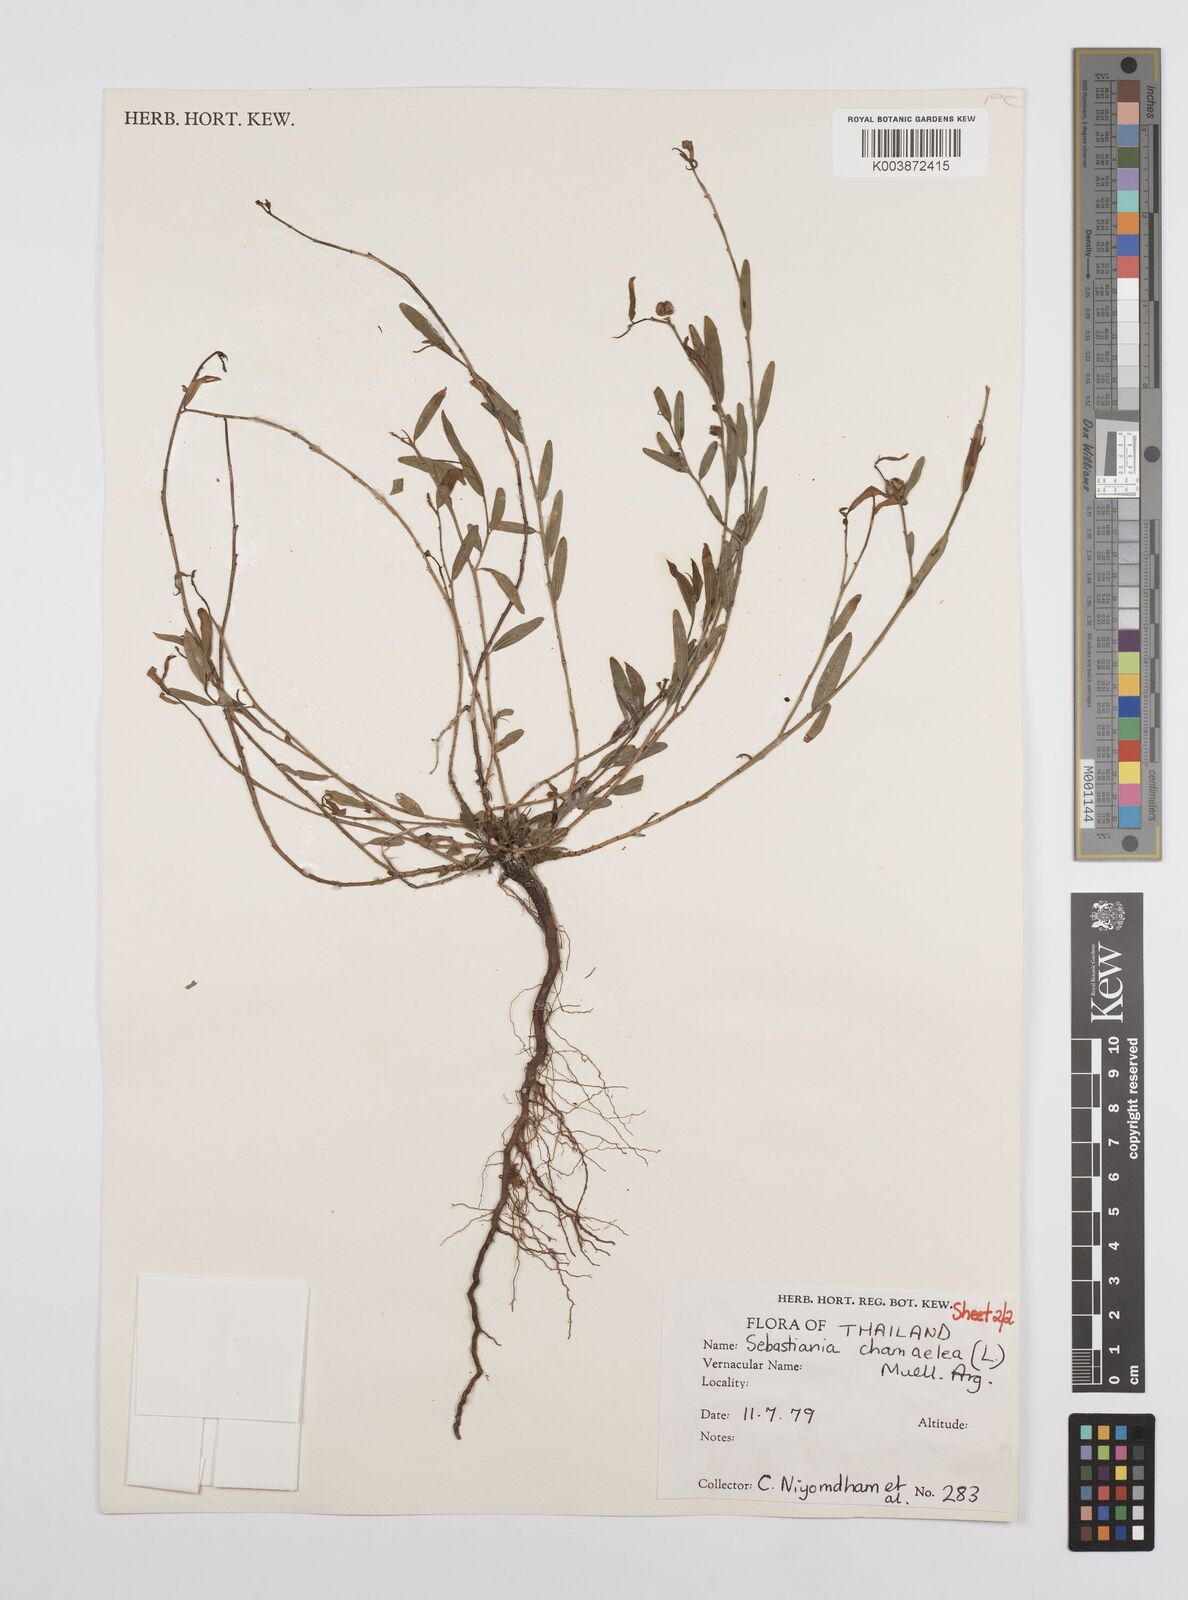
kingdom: Plantae
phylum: Tracheophyta
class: Magnoliopsida
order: Malpighiales
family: Euphorbiaceae
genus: Microstachys
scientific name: Microstachys chamaelea
